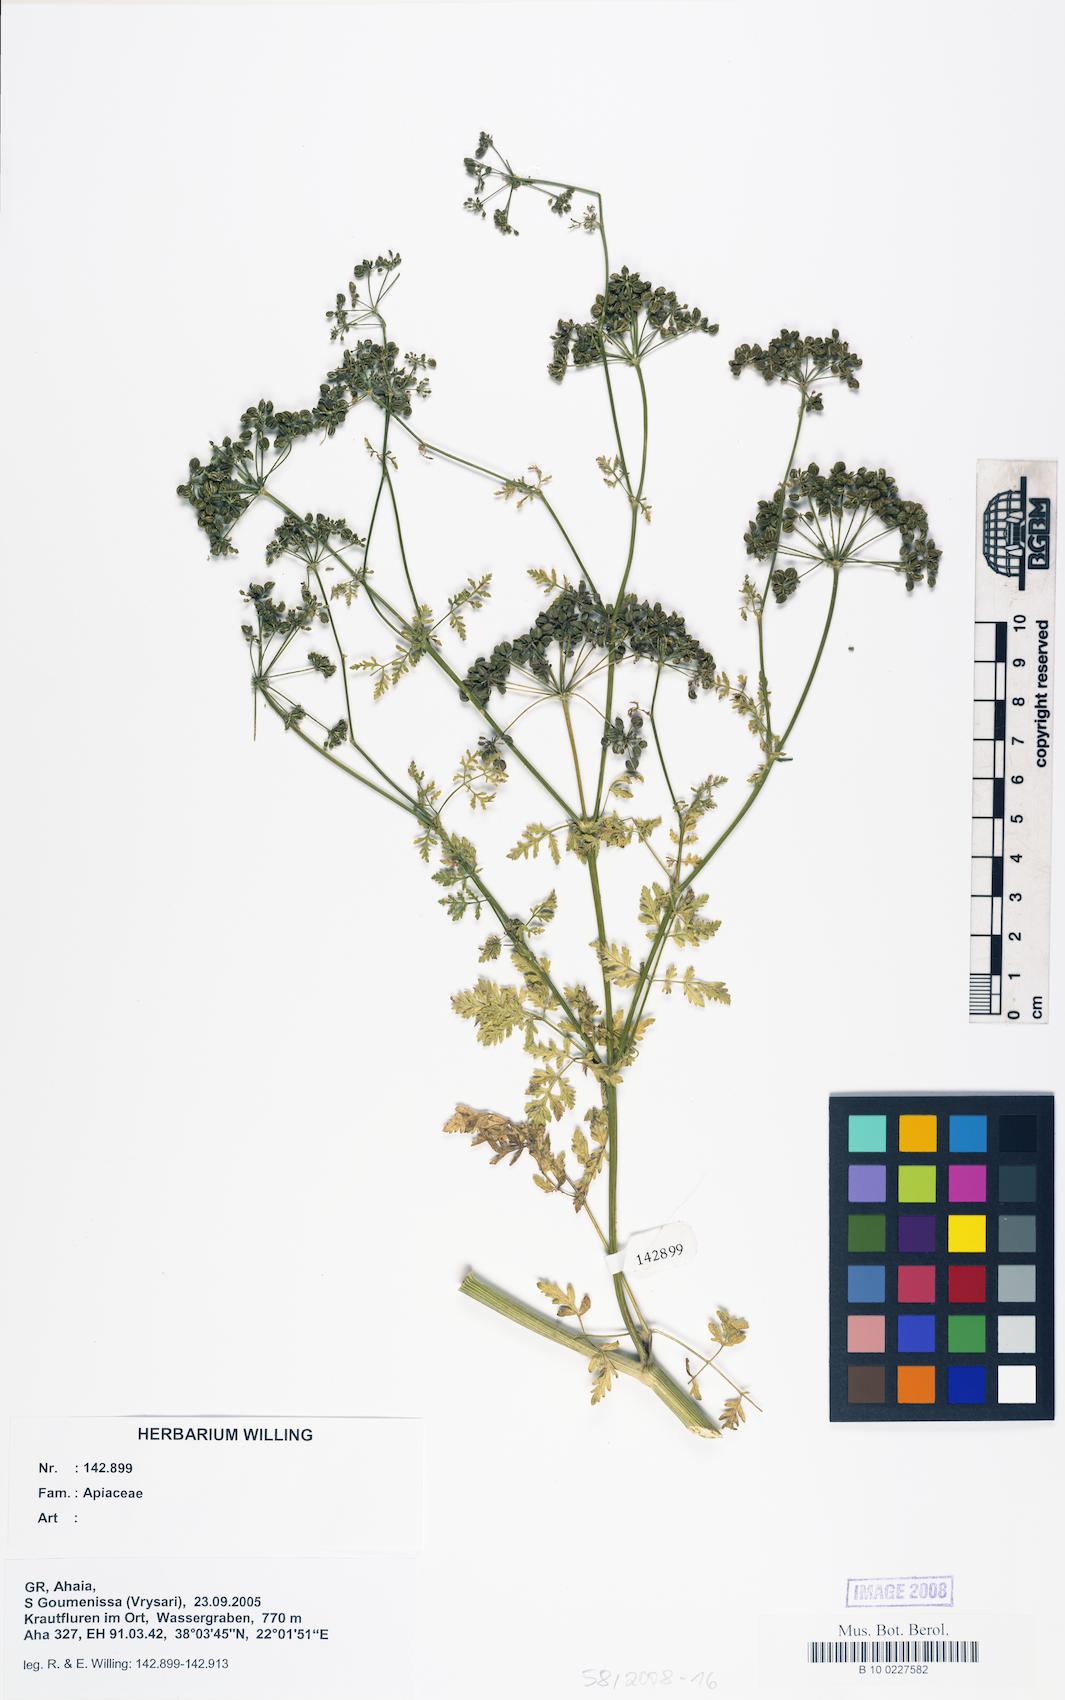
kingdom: Plantae
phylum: Tracheophyta
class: Magnoliopsida
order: Apiales
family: Apiaceae
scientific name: Apiaceae
